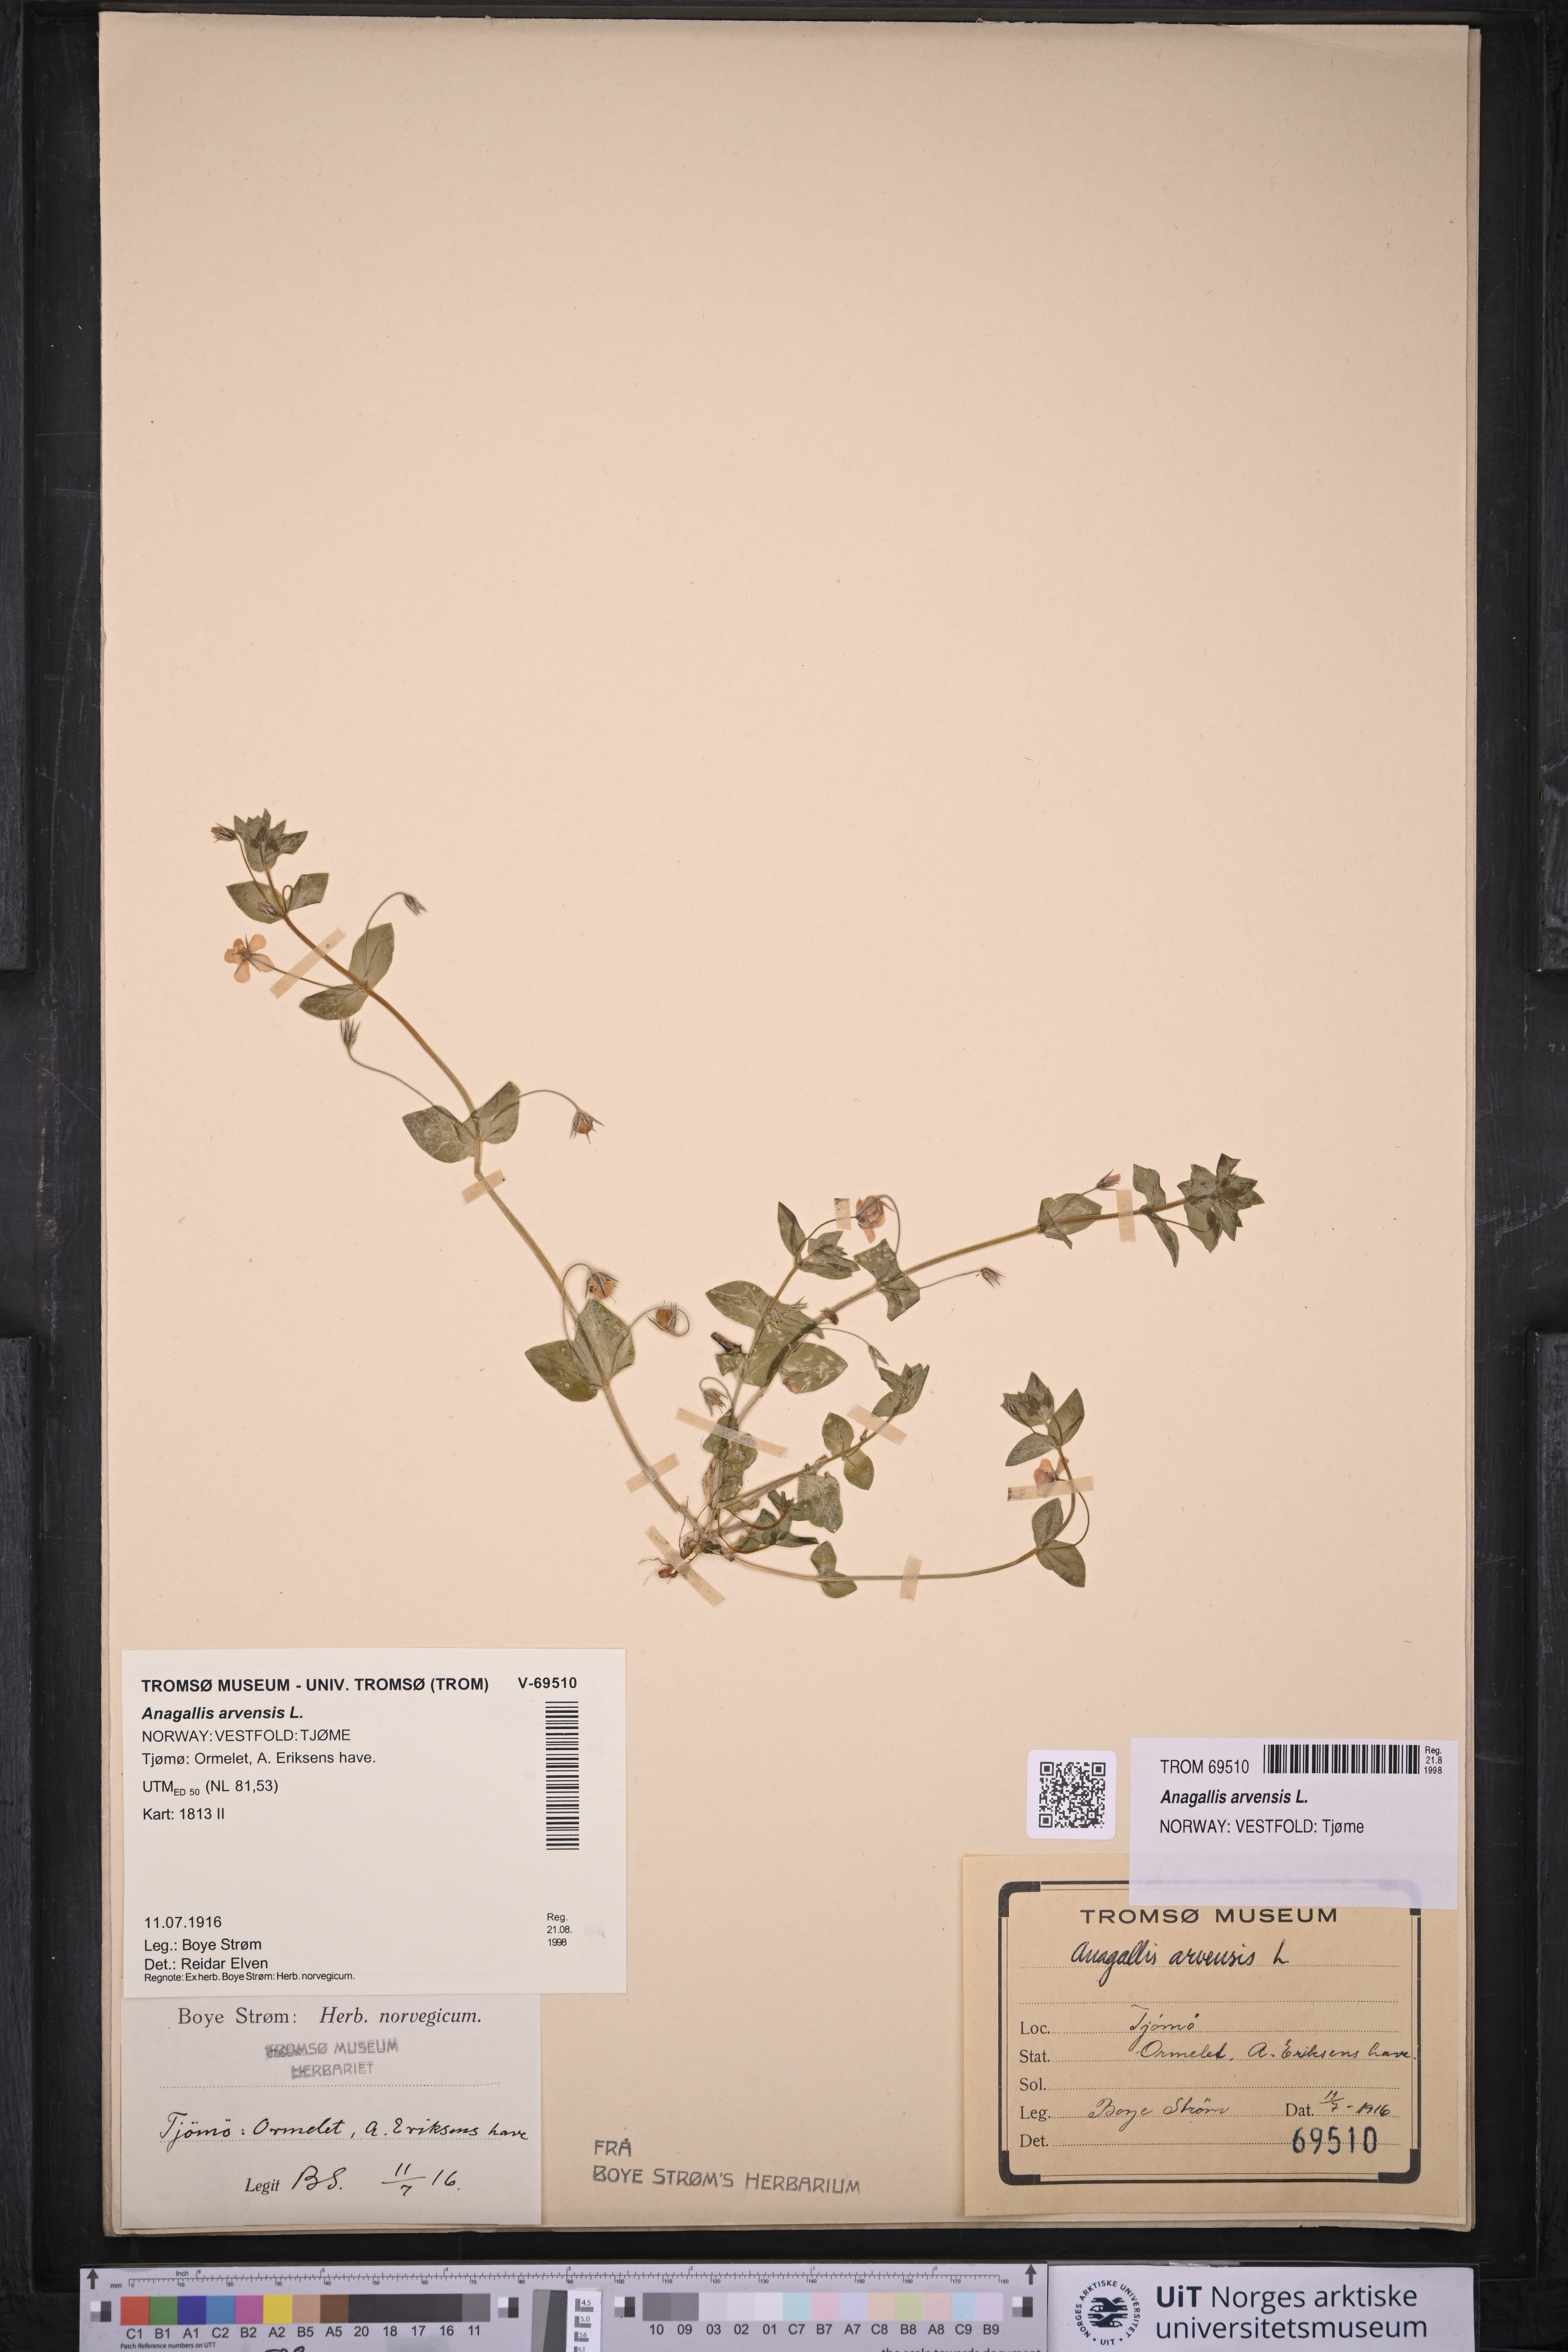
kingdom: Plantae
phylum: Tracheophyta
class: Magnoliopsida
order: Ericales
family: Primulaceae
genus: Lysimachia
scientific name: Lysimachia arvensis
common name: Scarlet pimpernel
